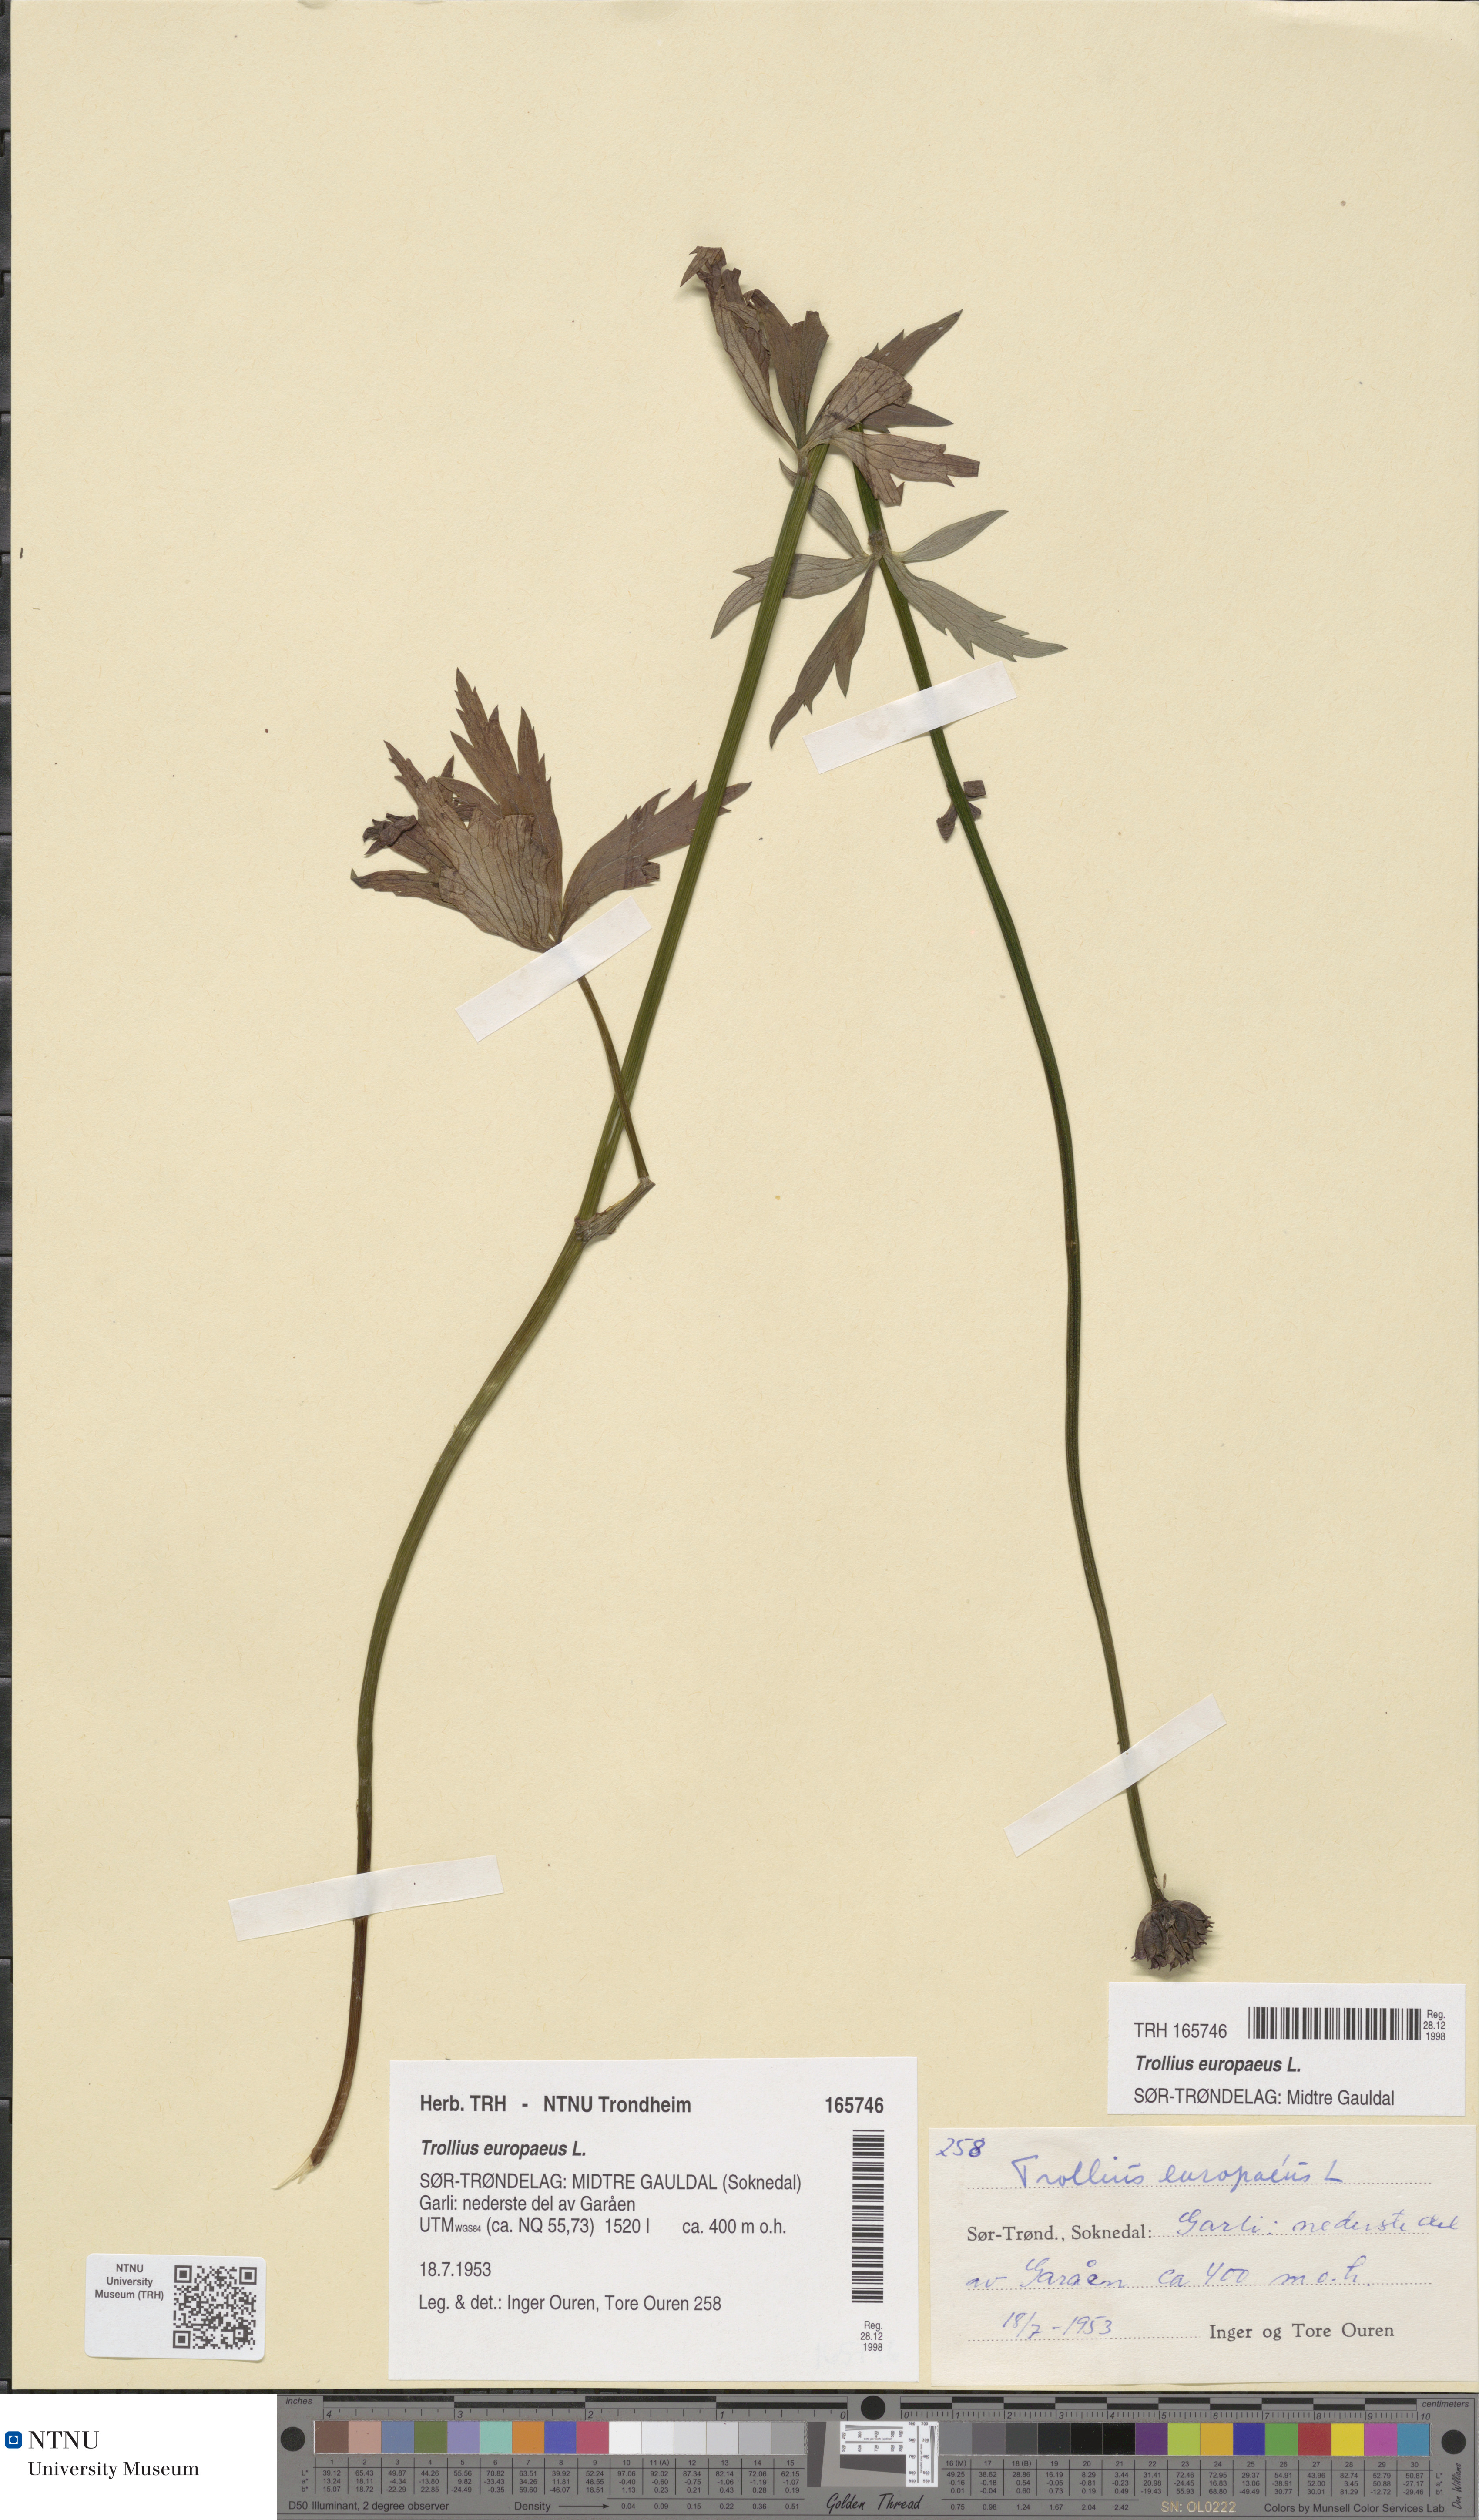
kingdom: Plantae
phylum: Tracheophyta
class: Magnoliopsida
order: Ranunculales
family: Ranunculaceae
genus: Trollius
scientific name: Trollius europaeus
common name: European globeflower
